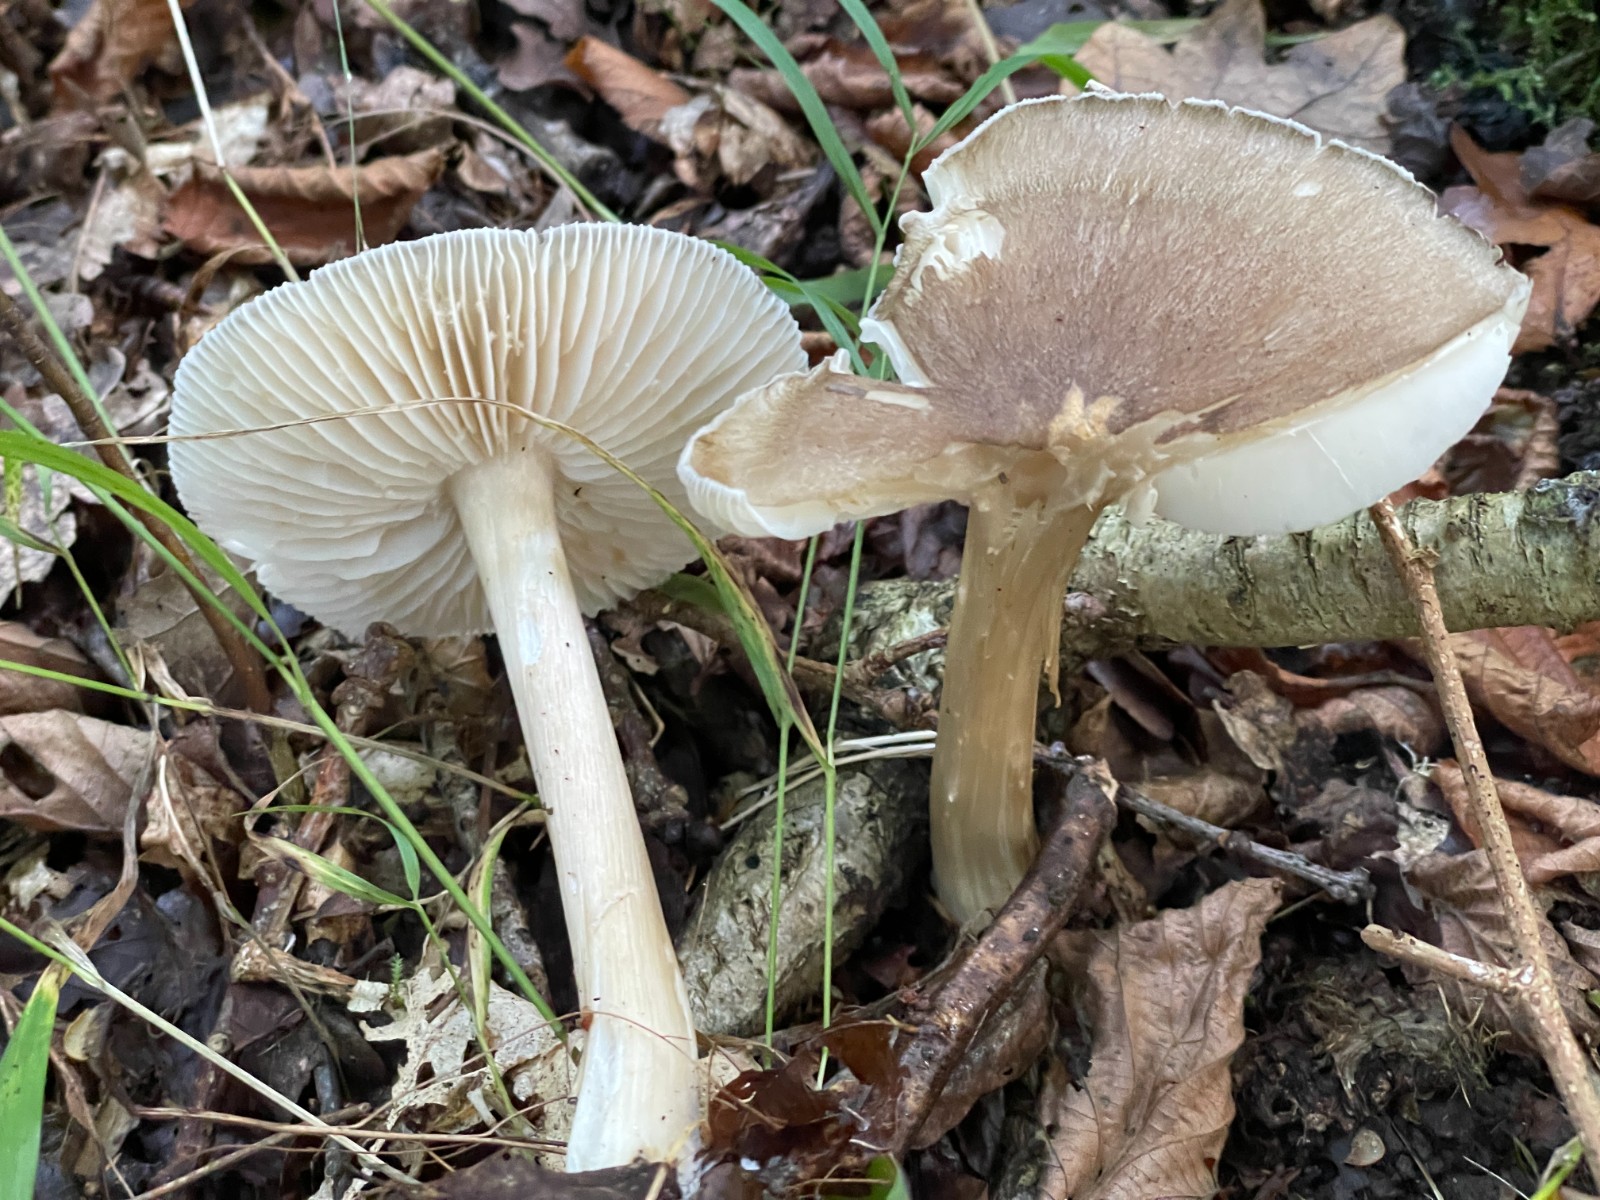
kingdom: Fungi
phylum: Basidiomycota
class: Agaricomycetes
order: Agaricales
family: Tricholomataceae
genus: Megacollybia
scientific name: Megacollybia platyphylla
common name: bredbladet væbnerhat
